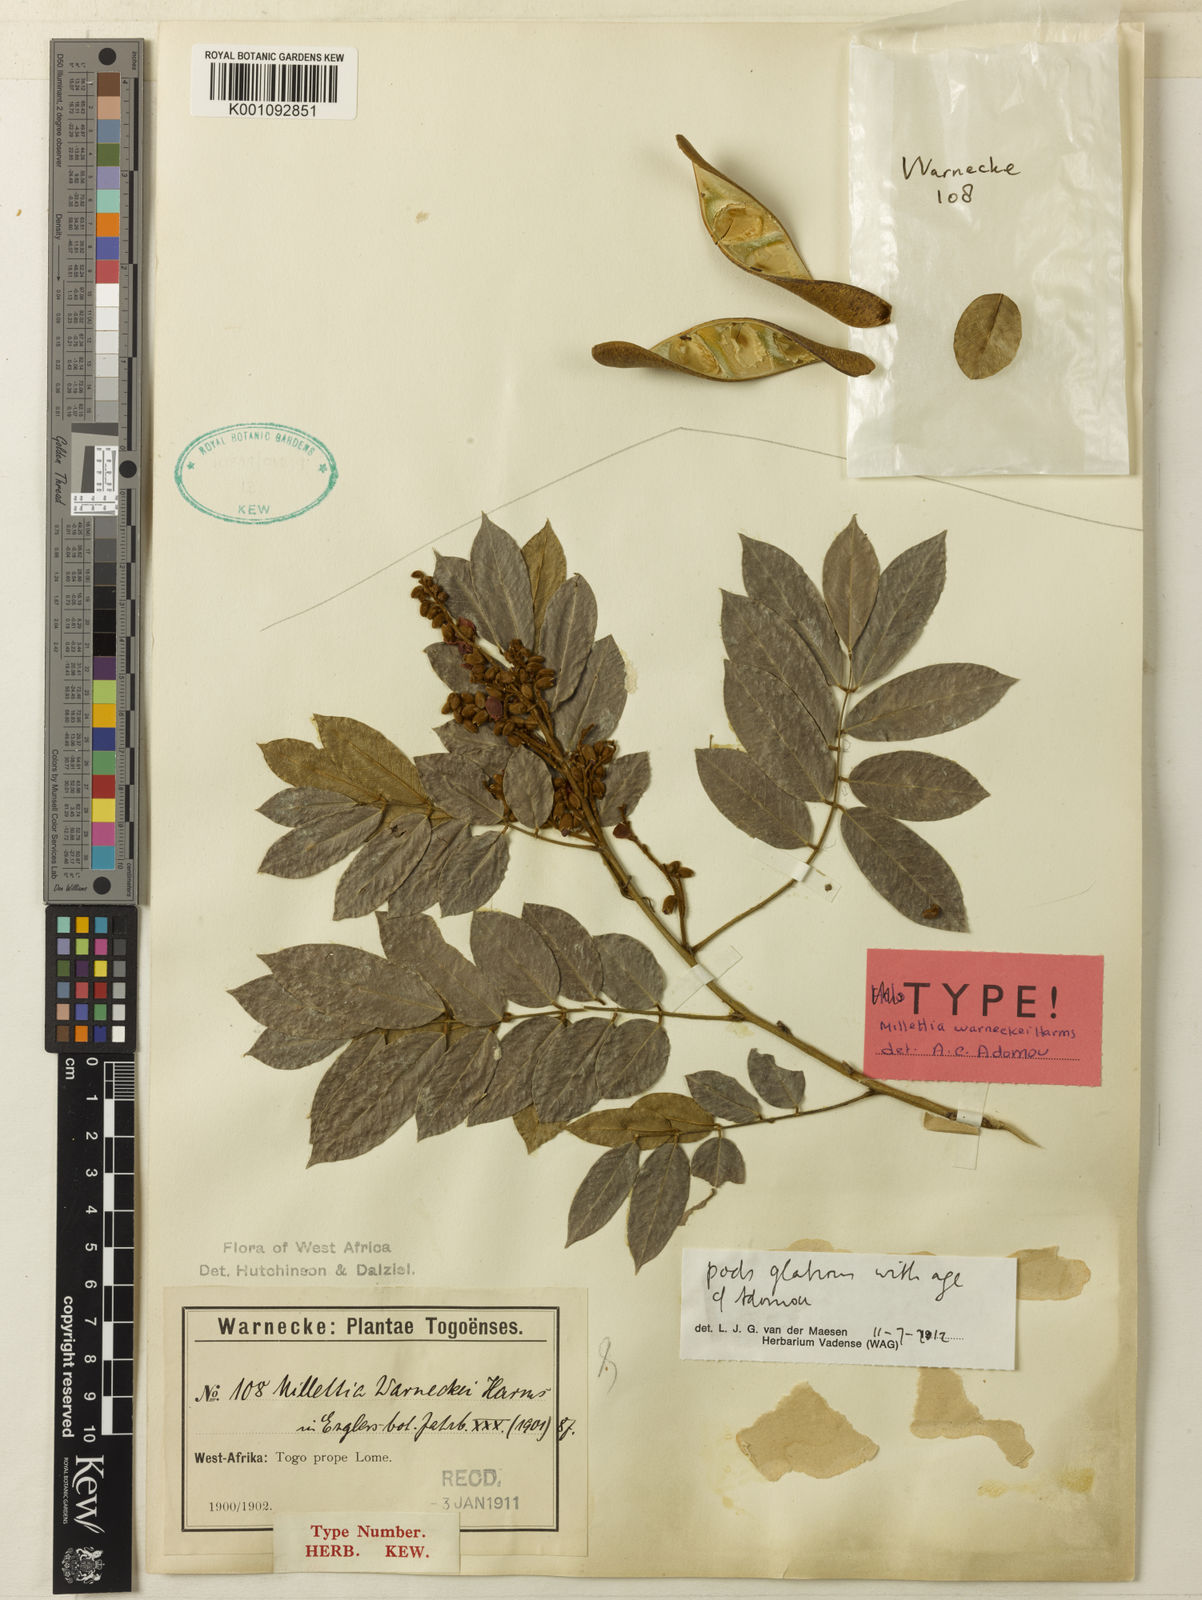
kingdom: Plantae
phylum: Tracheophyta
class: Magnoliopsida
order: Fabales
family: Fabaceae
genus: Millettia
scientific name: Millettia warneckei
